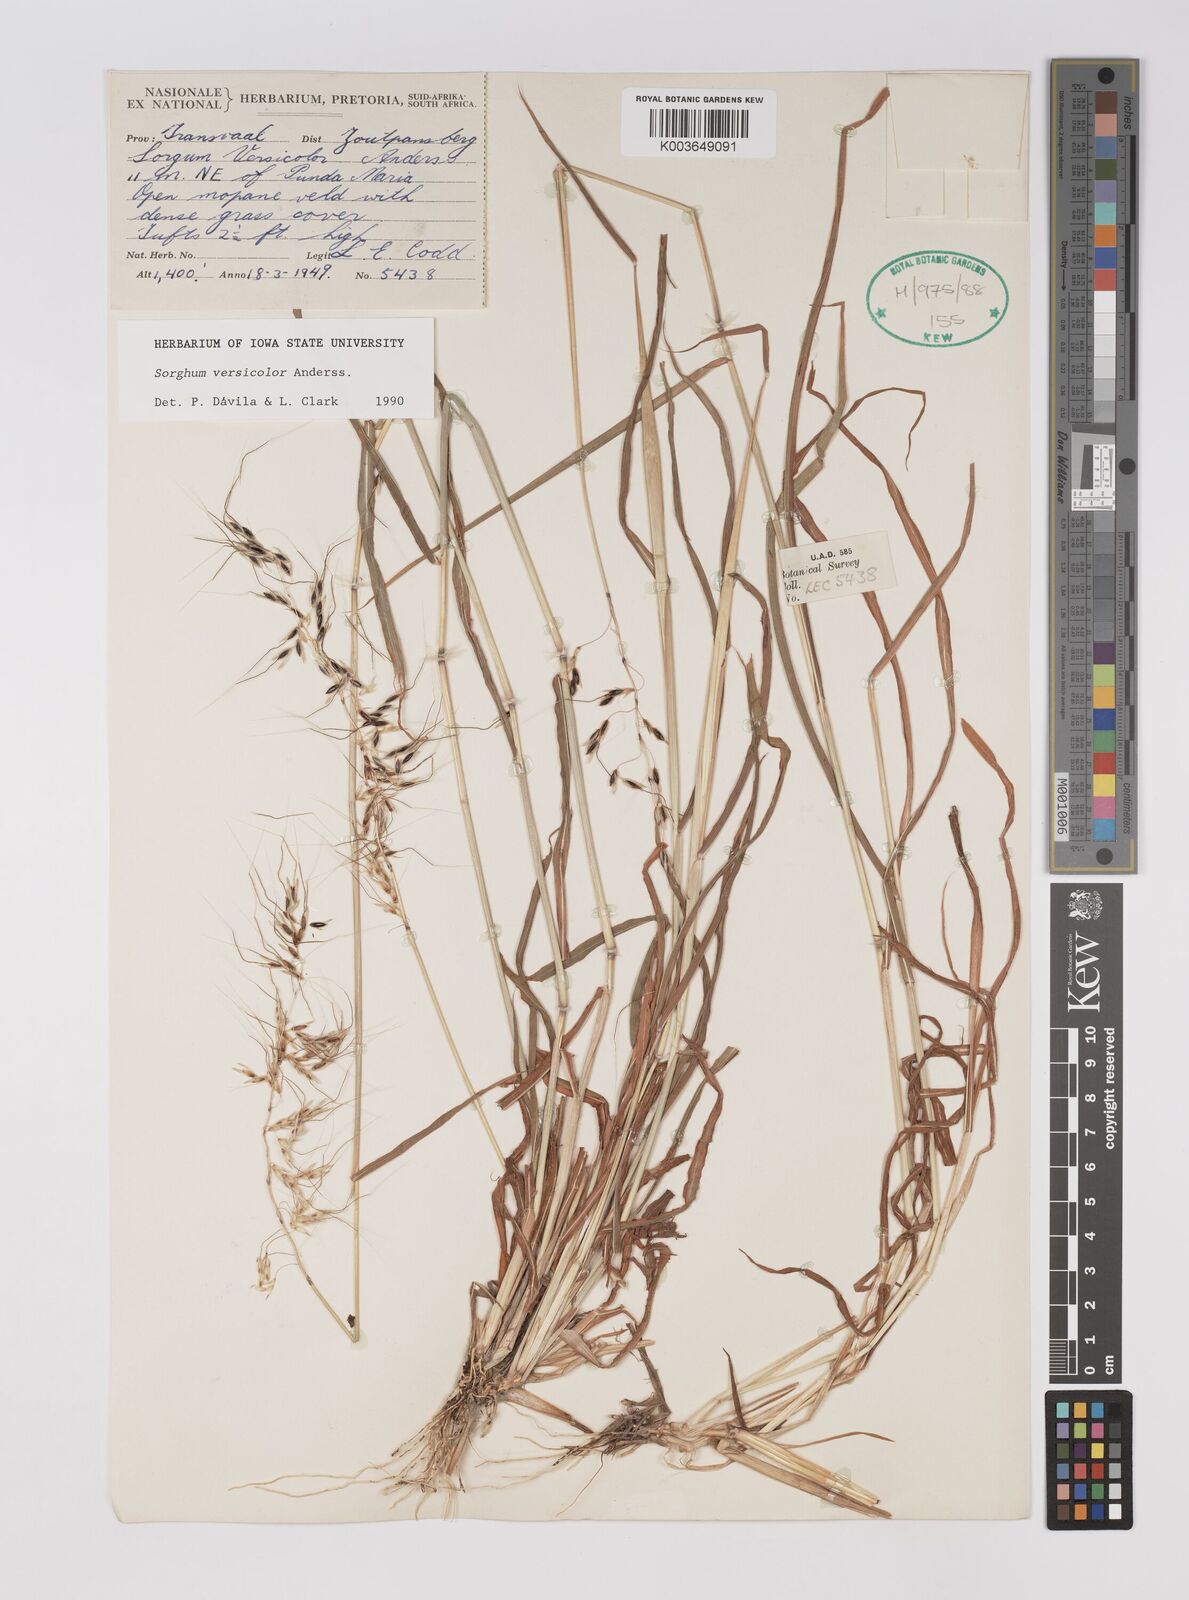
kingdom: Plantae
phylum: Tracheophyta
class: Liliopsida
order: Poales
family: Poaceae
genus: Sarga
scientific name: Sarga versicolor
